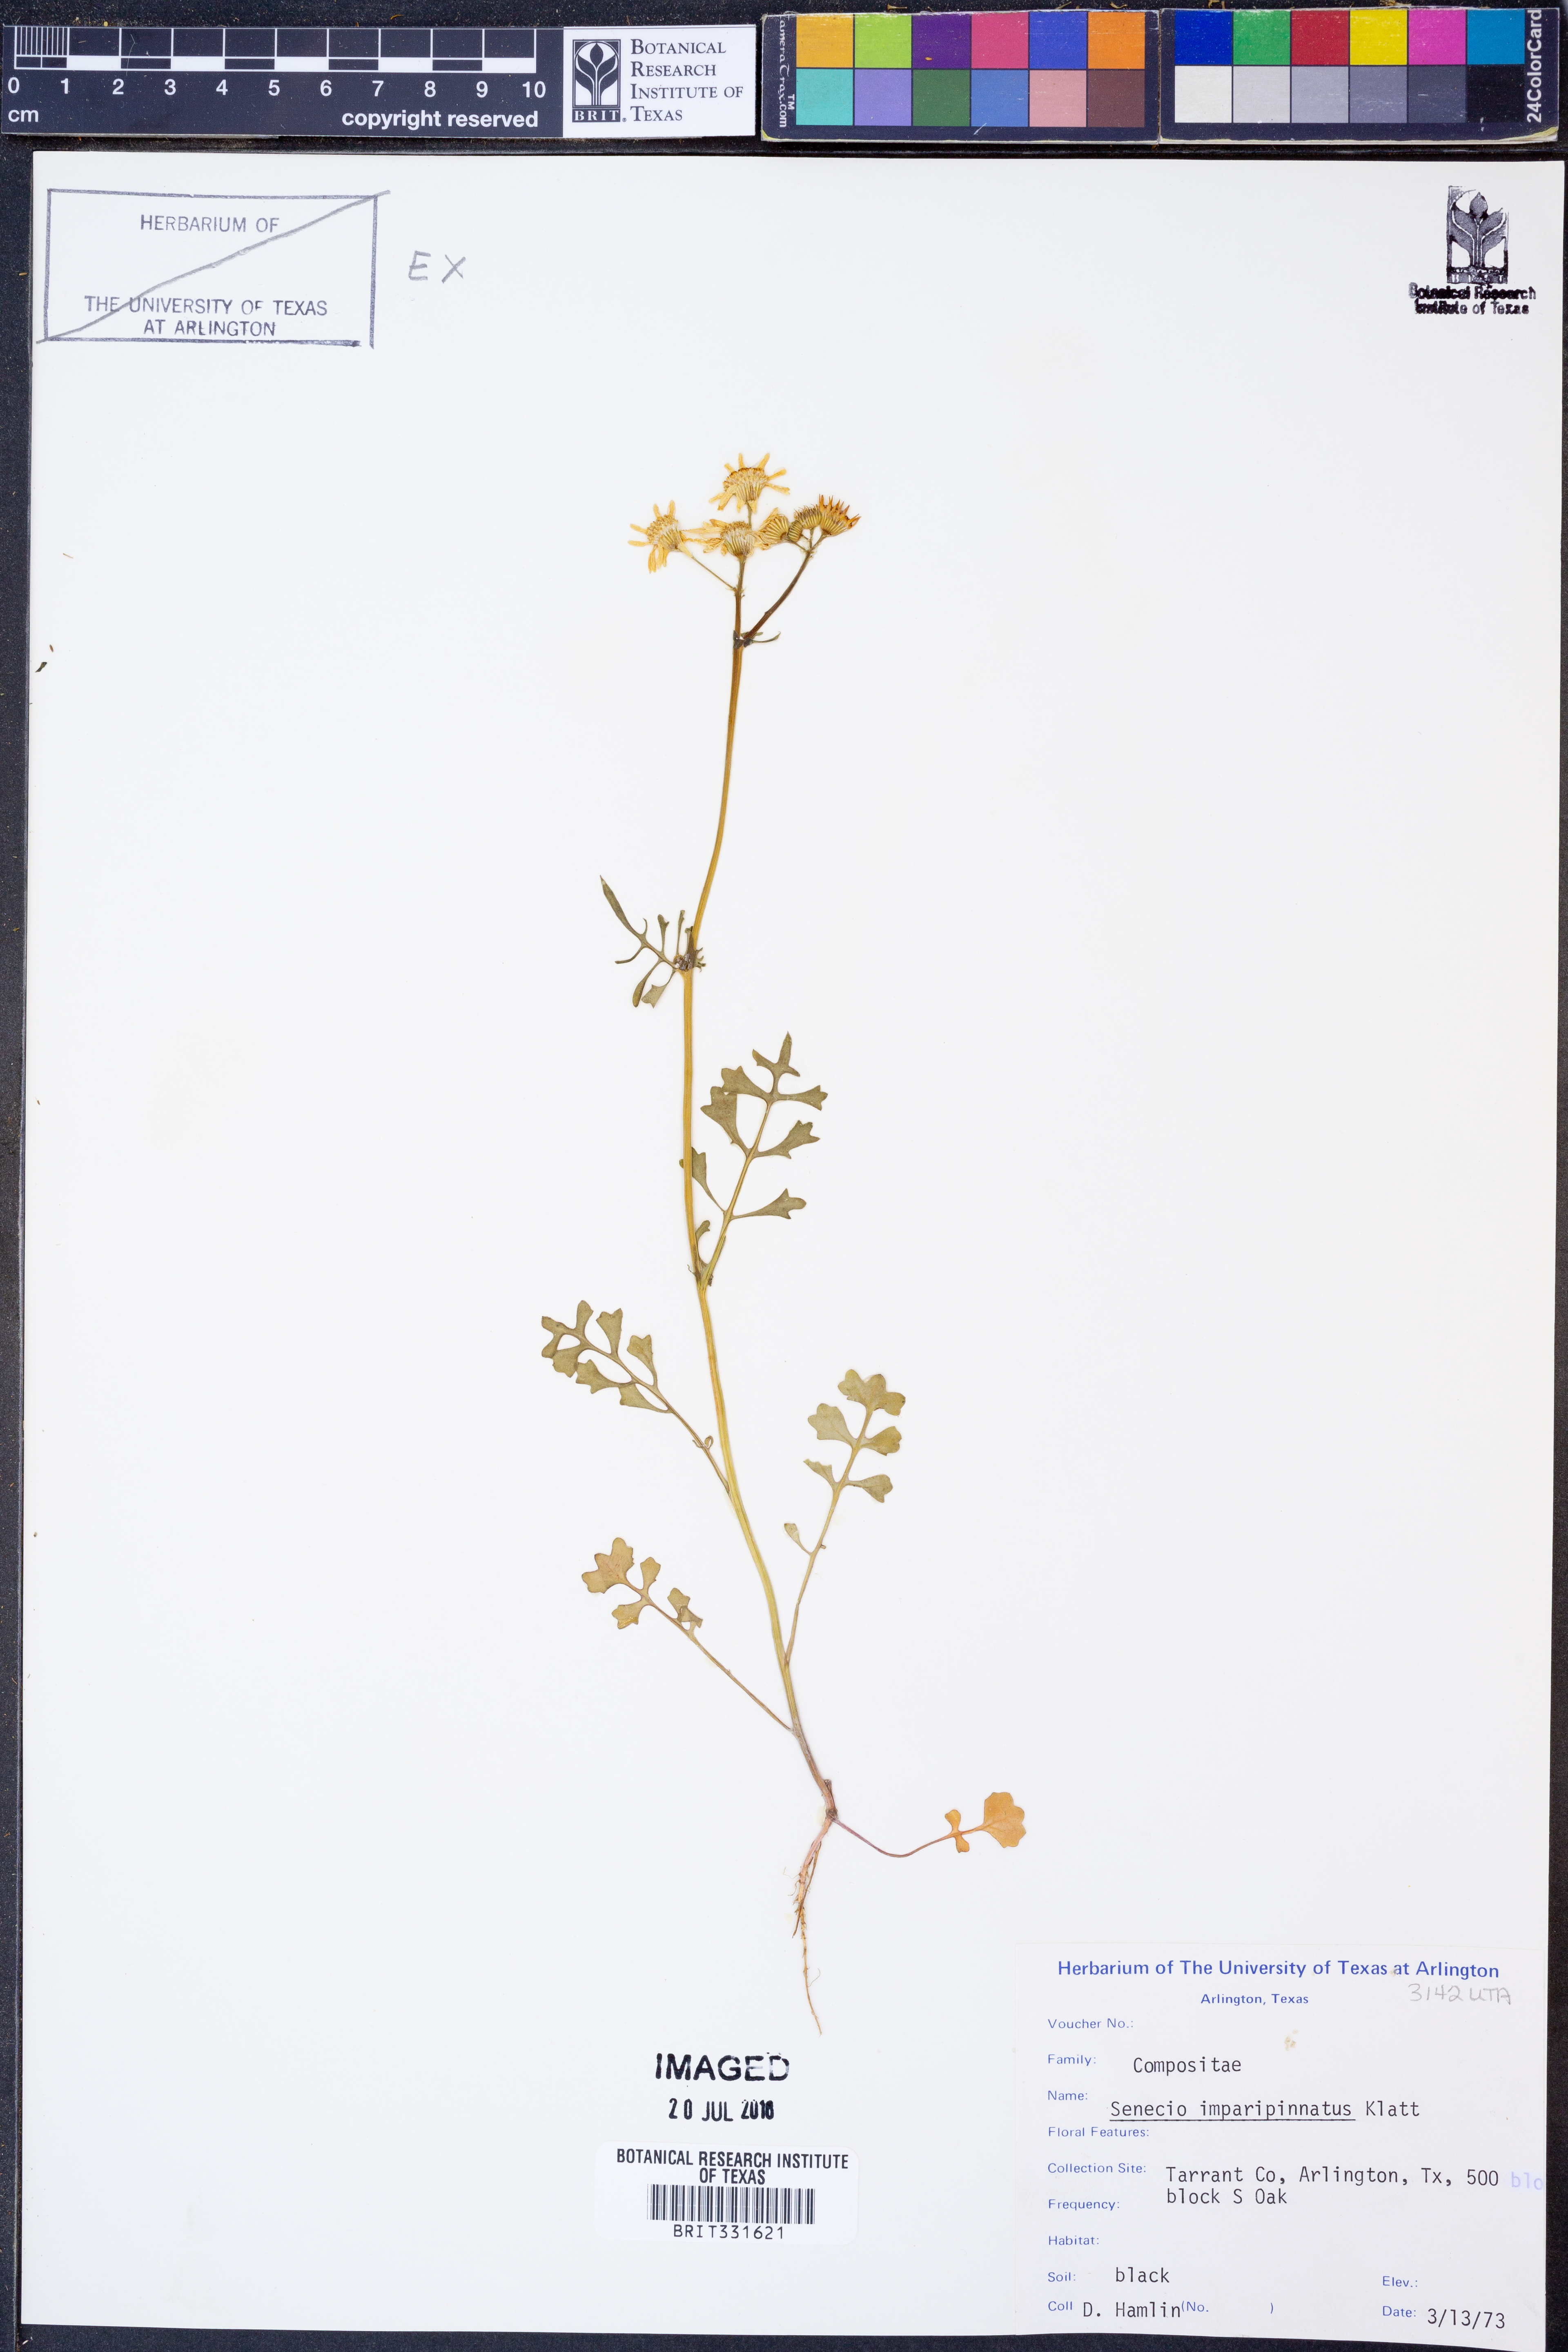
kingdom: Plantae
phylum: Tracheophyta
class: Magnoliopsida
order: Asterales
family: Asteraceae
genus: Packera
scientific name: Packera tampicana
